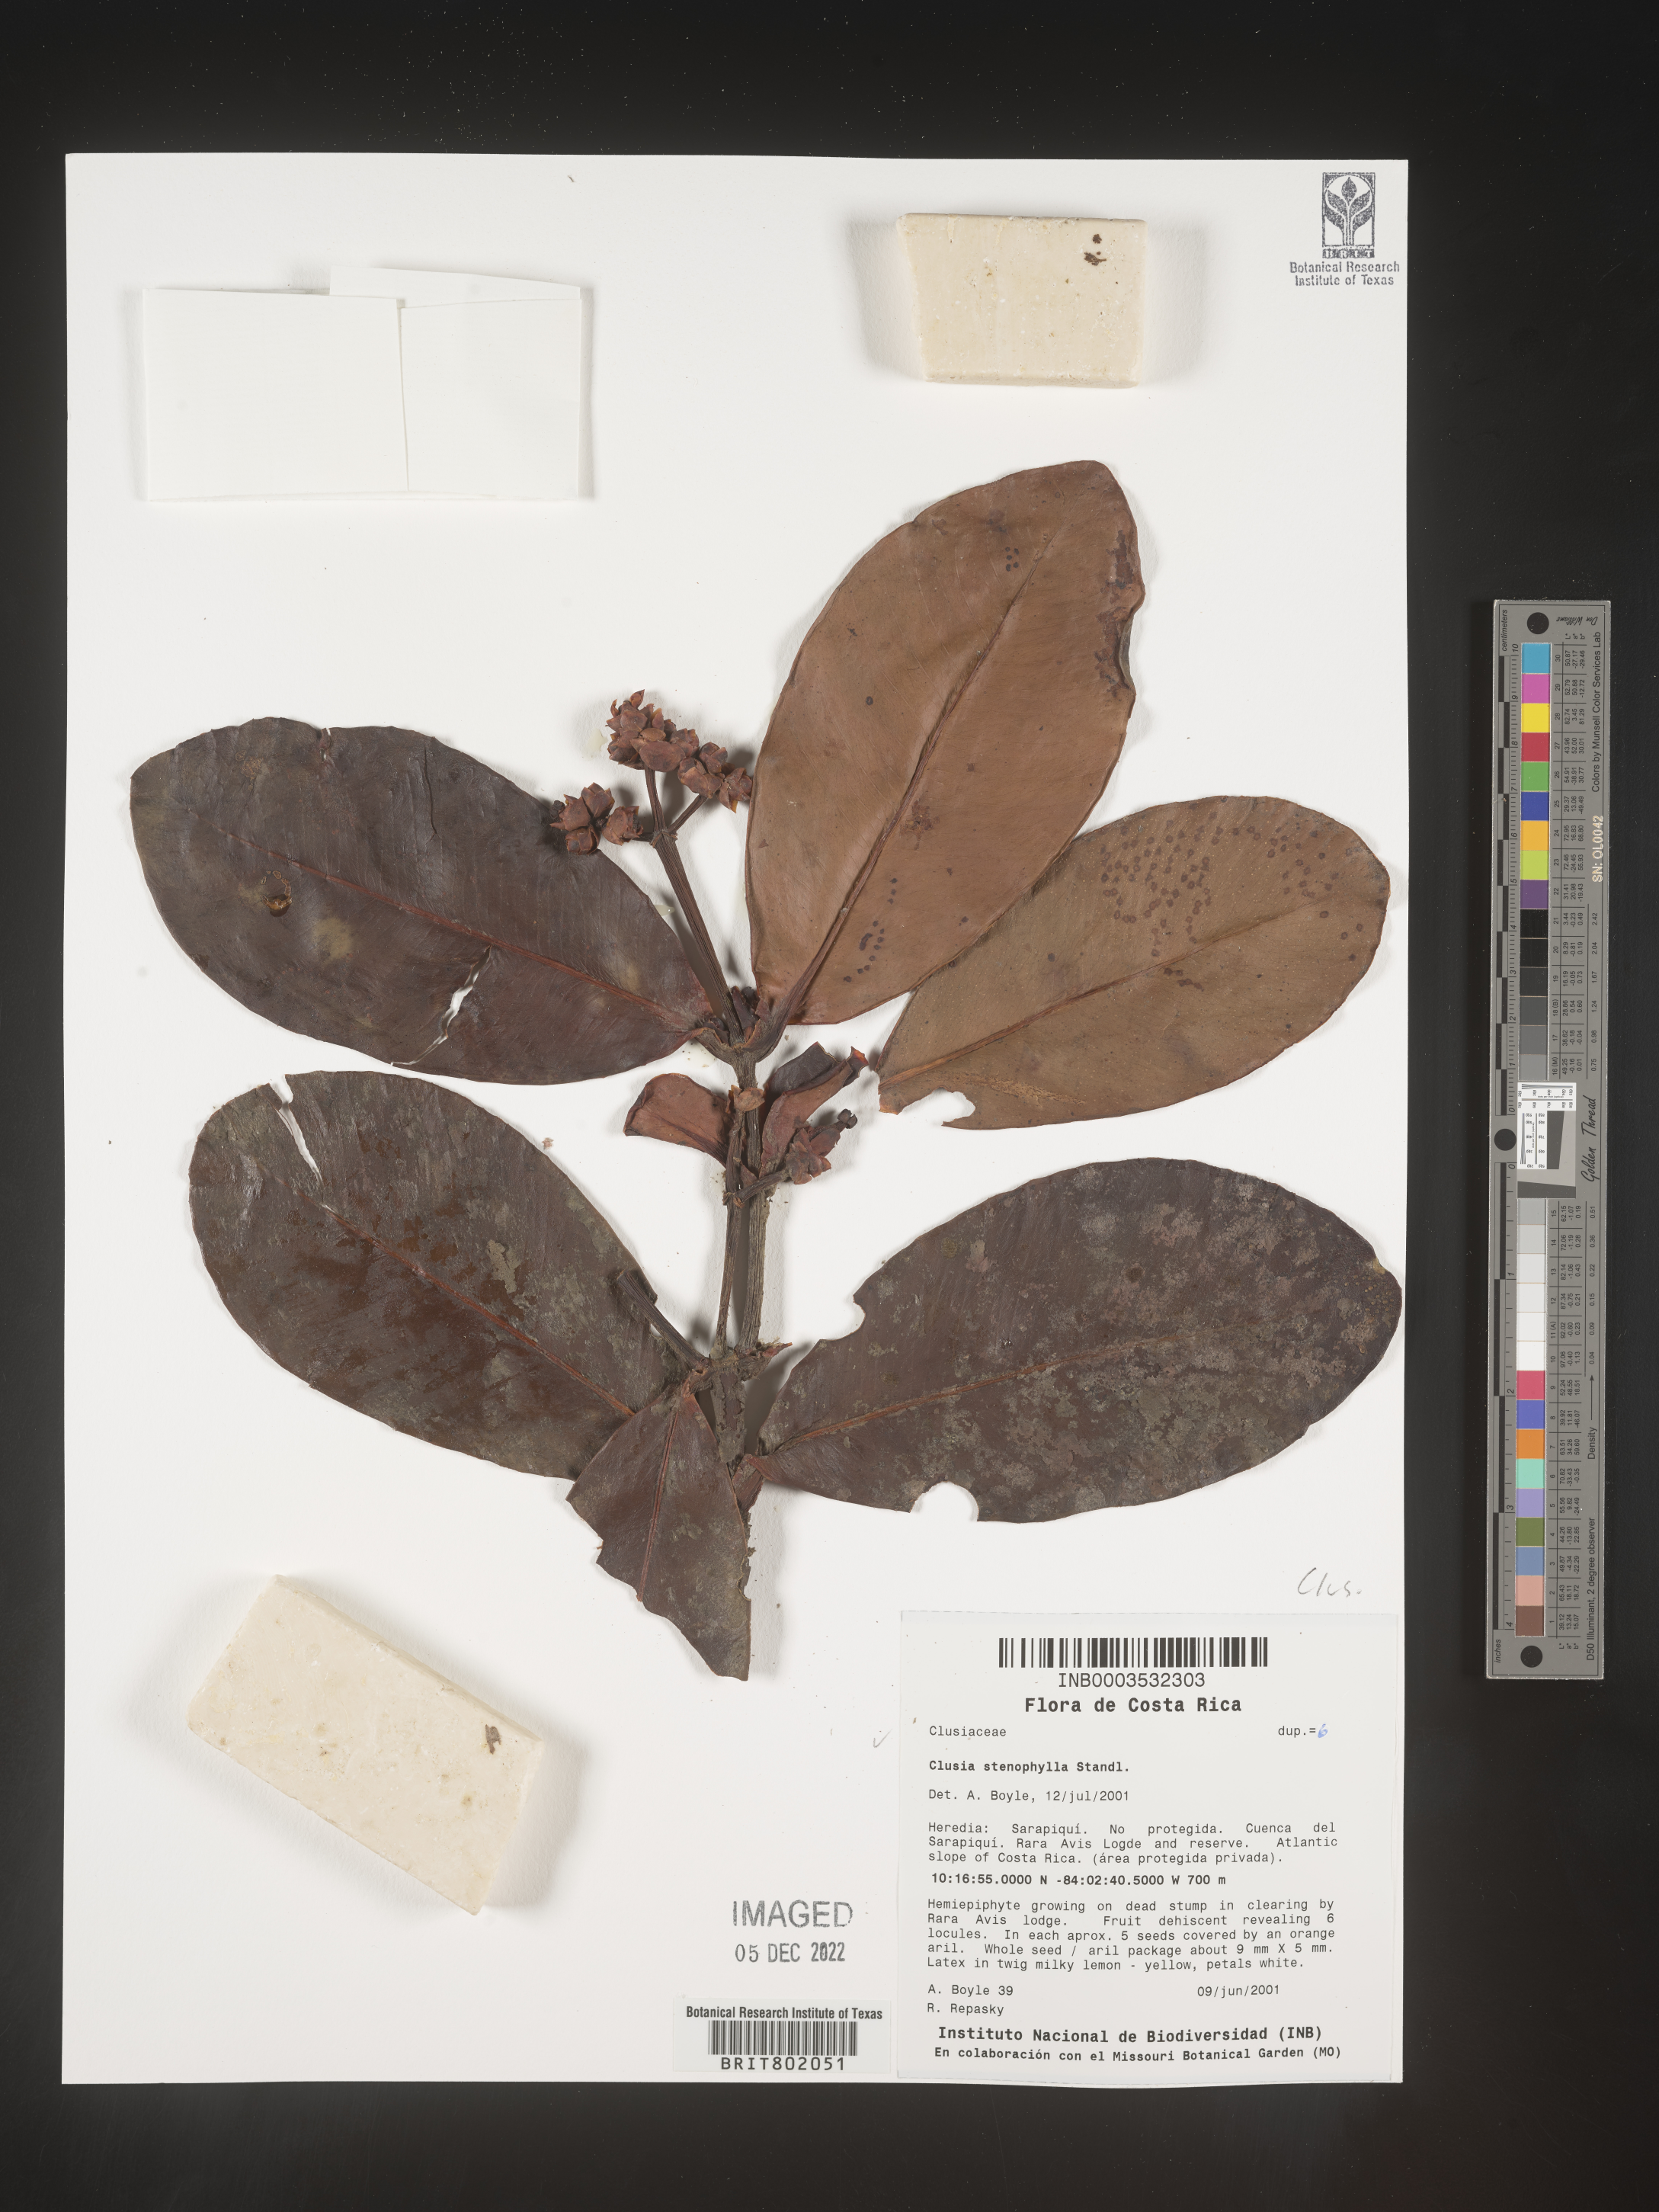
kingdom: Plantae
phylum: Tracheophyta
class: Magnoliopsida
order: Malpighiales
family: Clusiaceae
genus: Clusia
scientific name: Clusia
